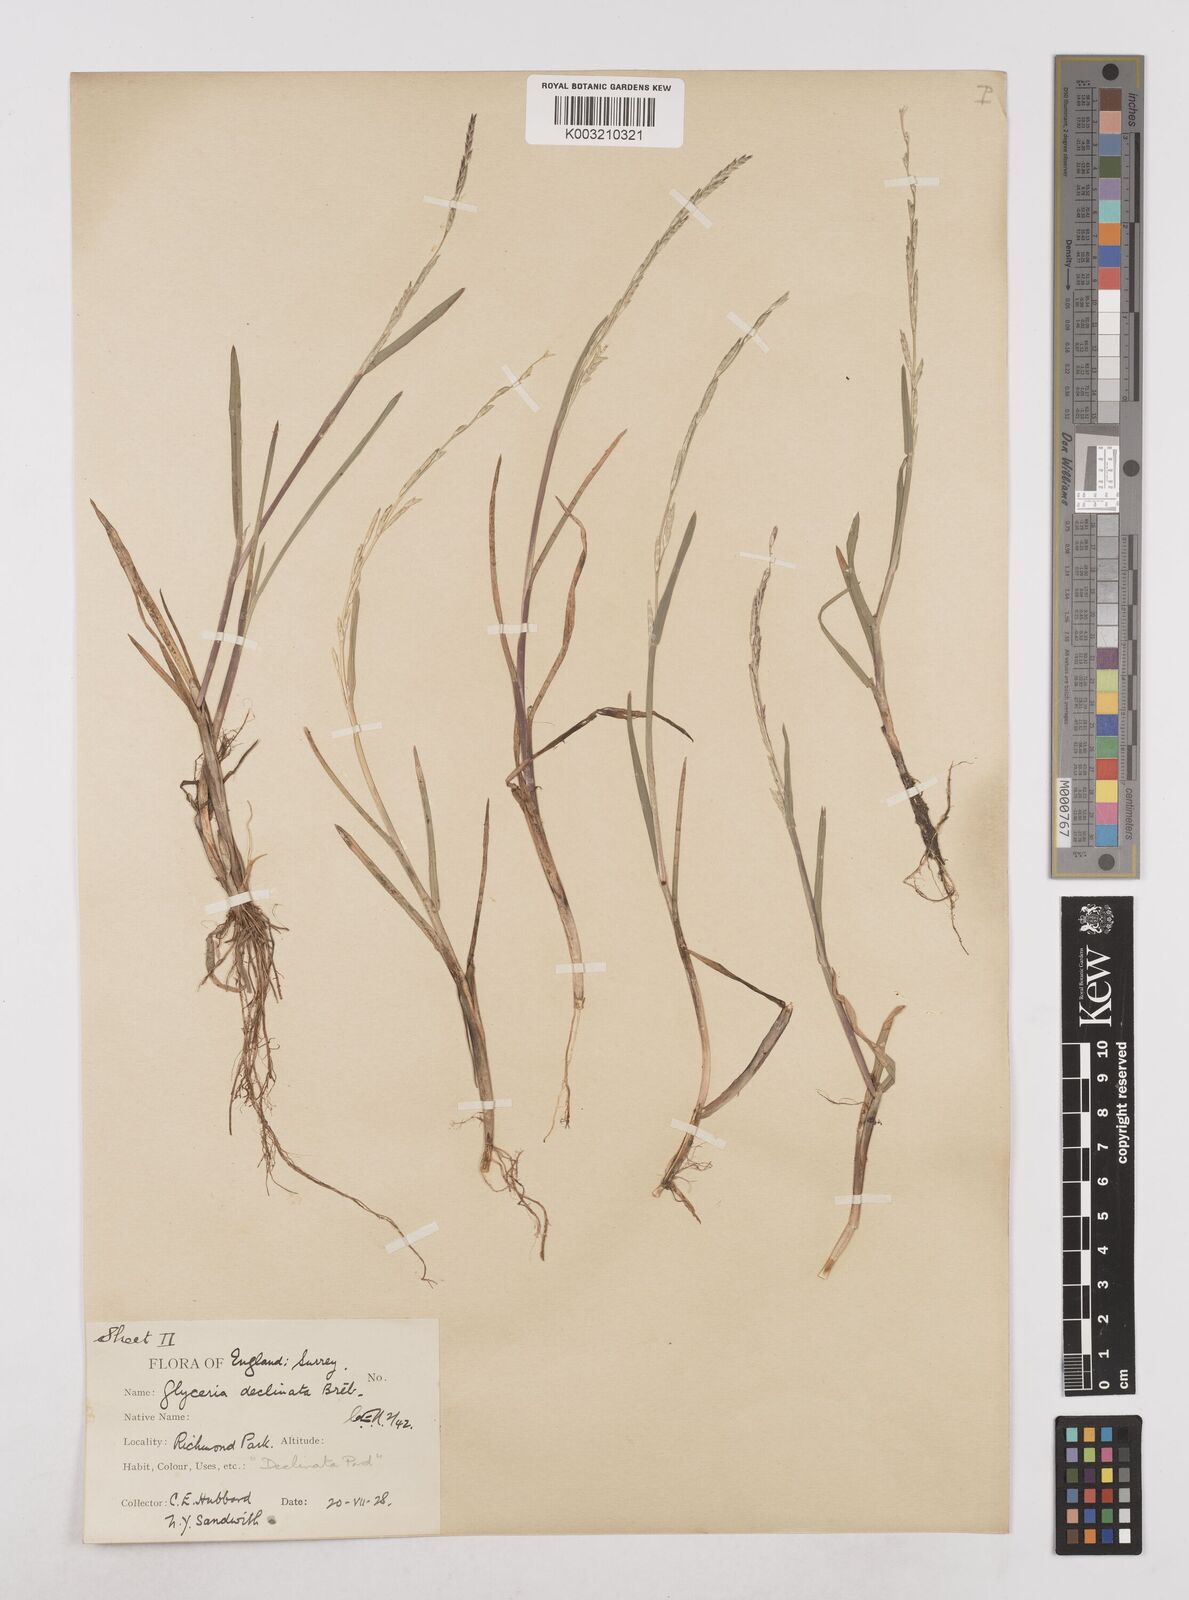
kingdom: Plantae
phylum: Tracheophyta
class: Liliopsida
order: Poales
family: Poaceae
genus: Glyceria
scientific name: Glyceria declinata
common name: Small sweet-grass
